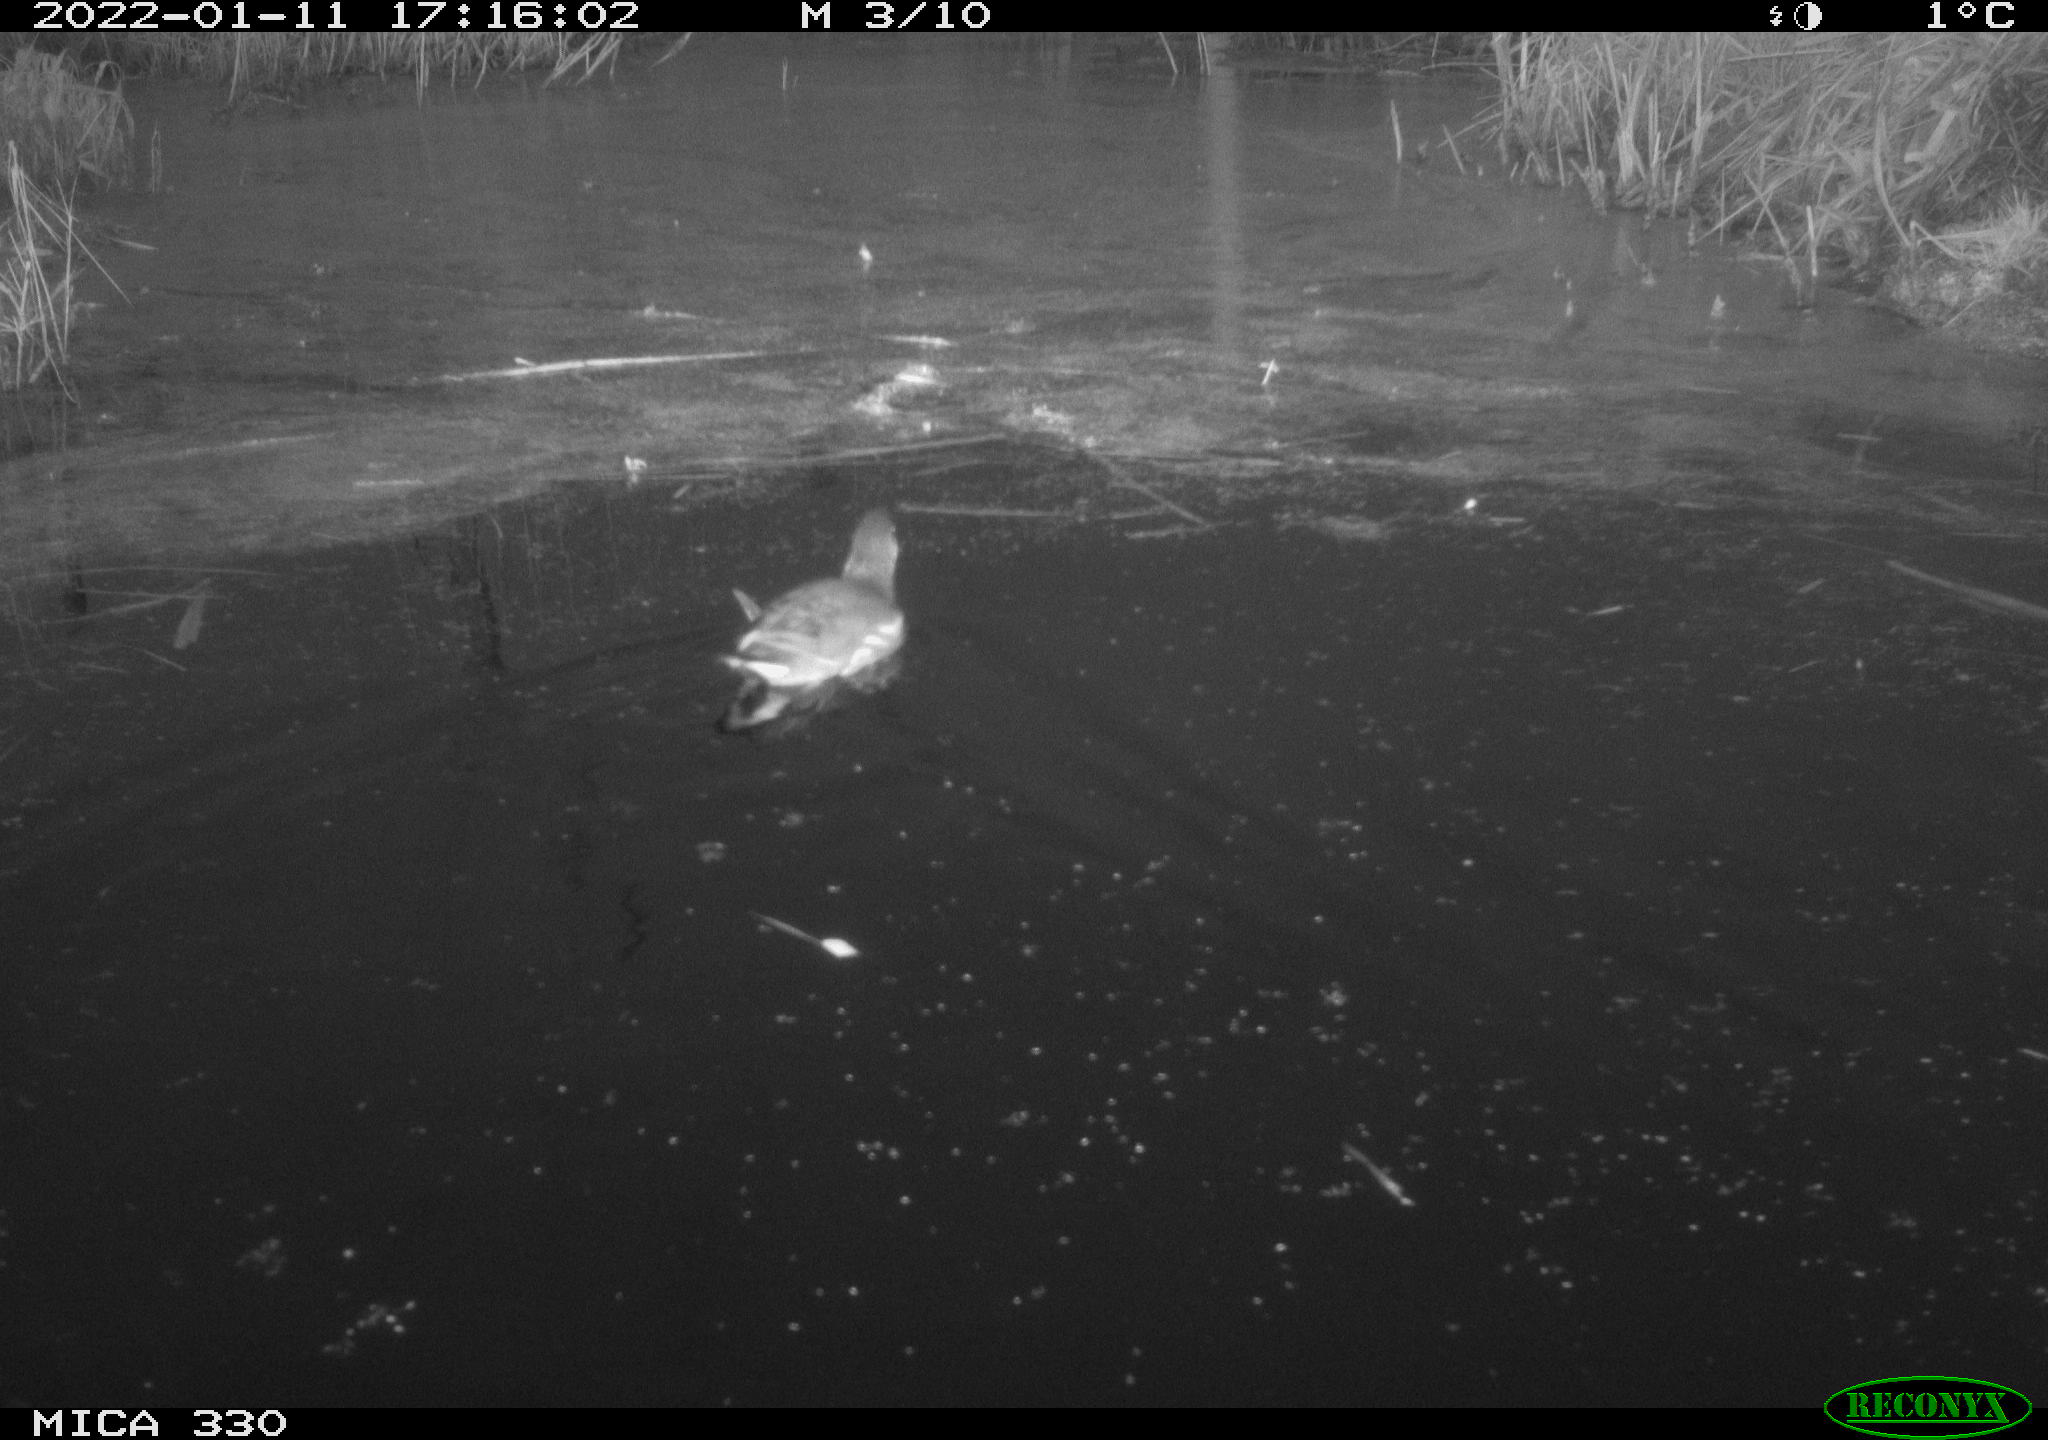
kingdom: Animalia
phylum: Chordata
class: Aves
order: Gruiformes
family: Rallidae
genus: Gallinula
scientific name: Gallinula chloropus
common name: Common moorhen
